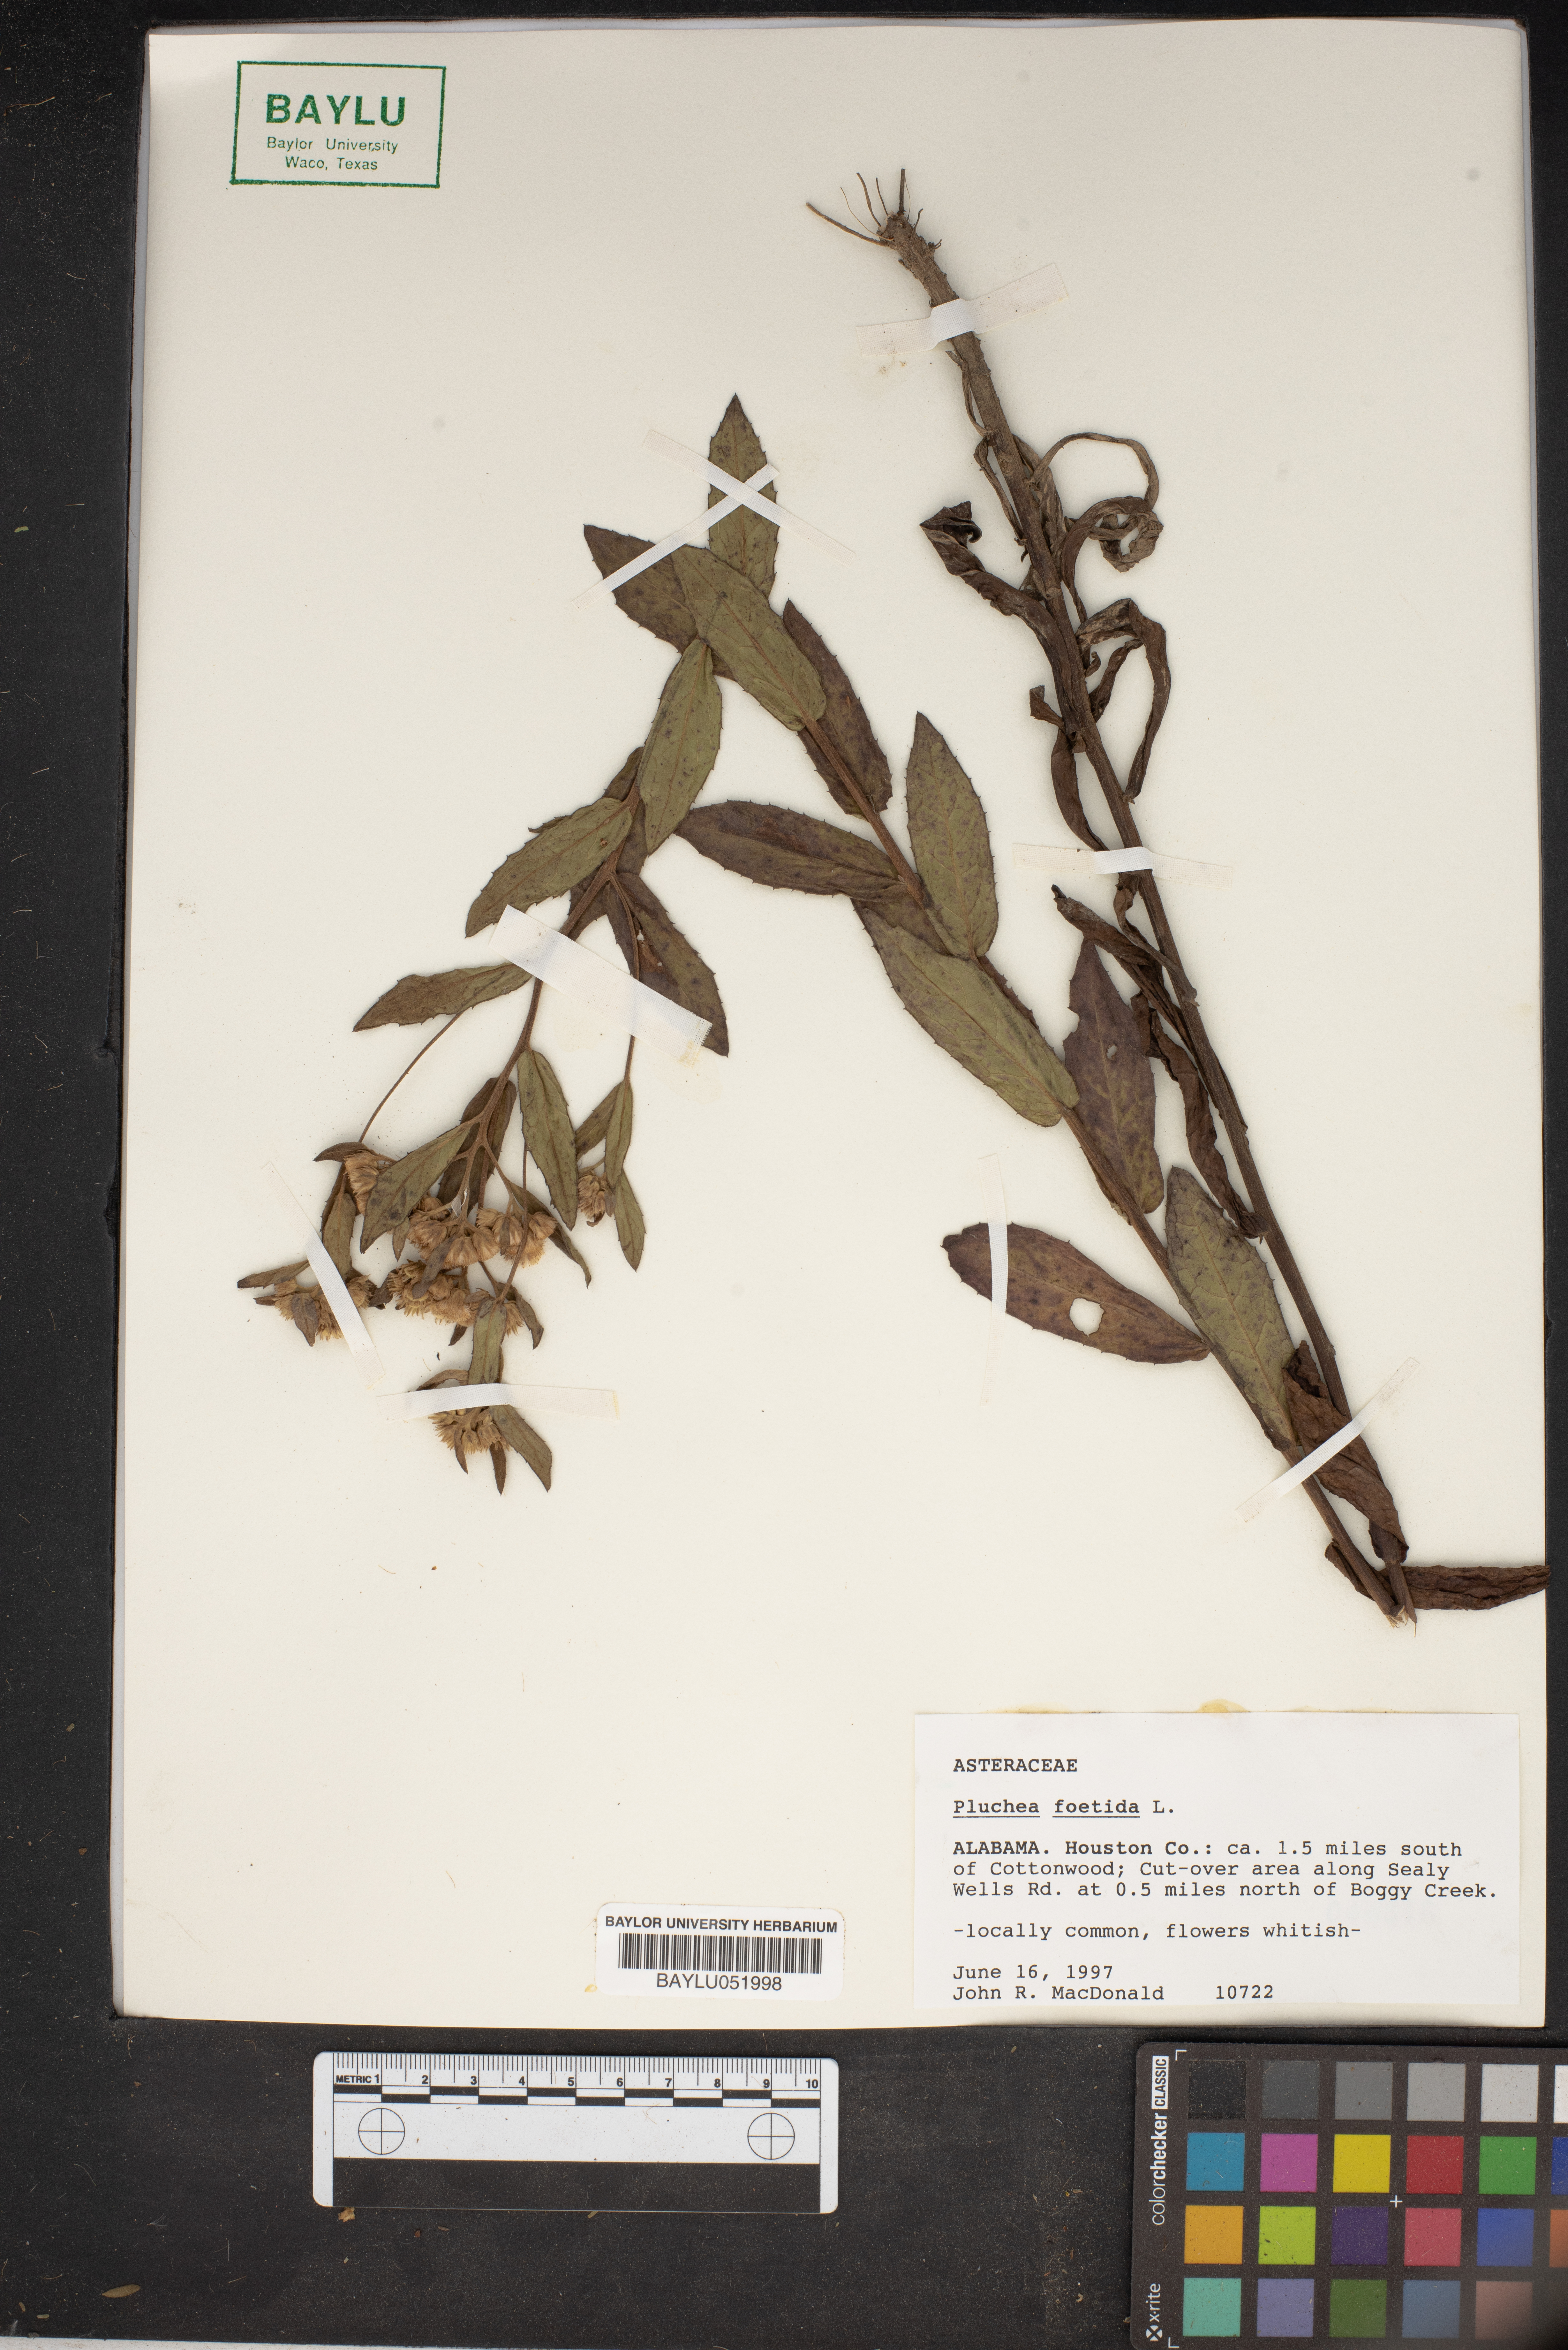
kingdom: Plantae
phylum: Tracheophyta
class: Magnoliopsida
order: Asterales
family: Asteraceae
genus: Pluchea
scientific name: Pluchea foetida
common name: Stinking camphorweed
